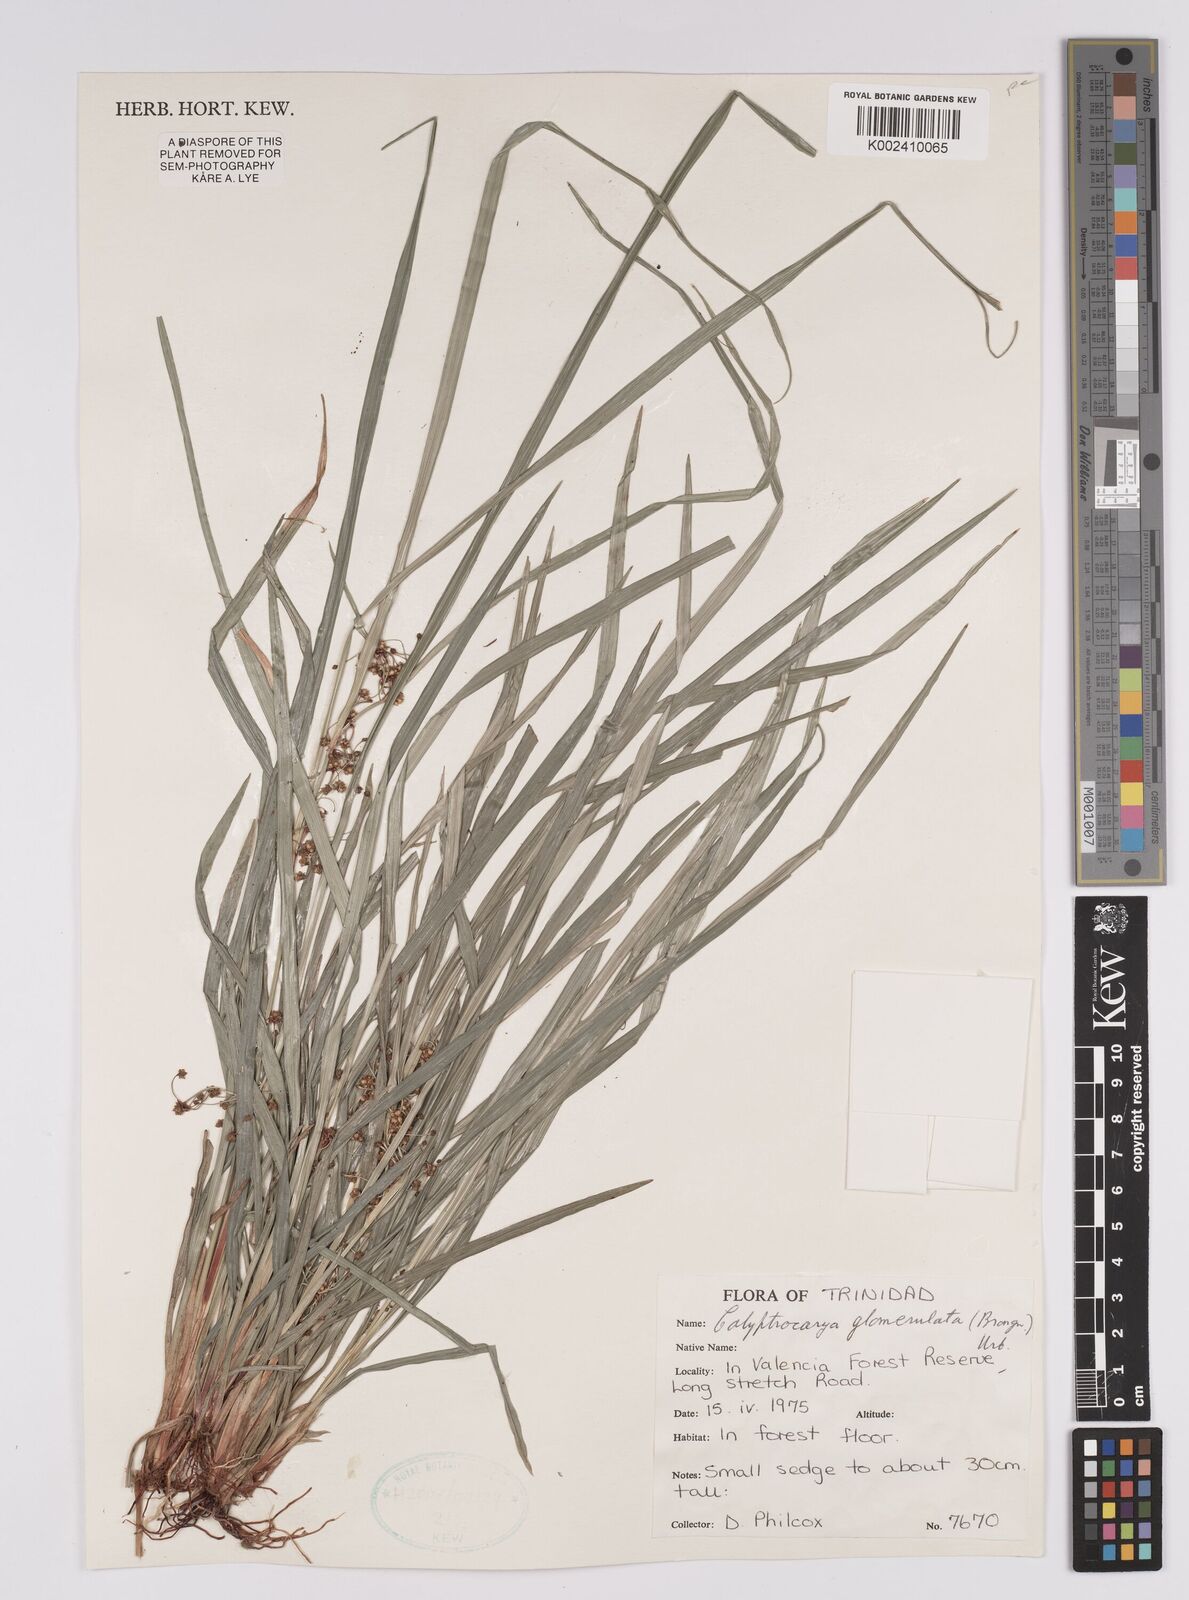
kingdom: Plantae
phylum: Tracheophyta
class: Liliopsida
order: Poales
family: Cyperaceae
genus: Calyptrocarya
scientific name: Calyptrocarya glomerulata
